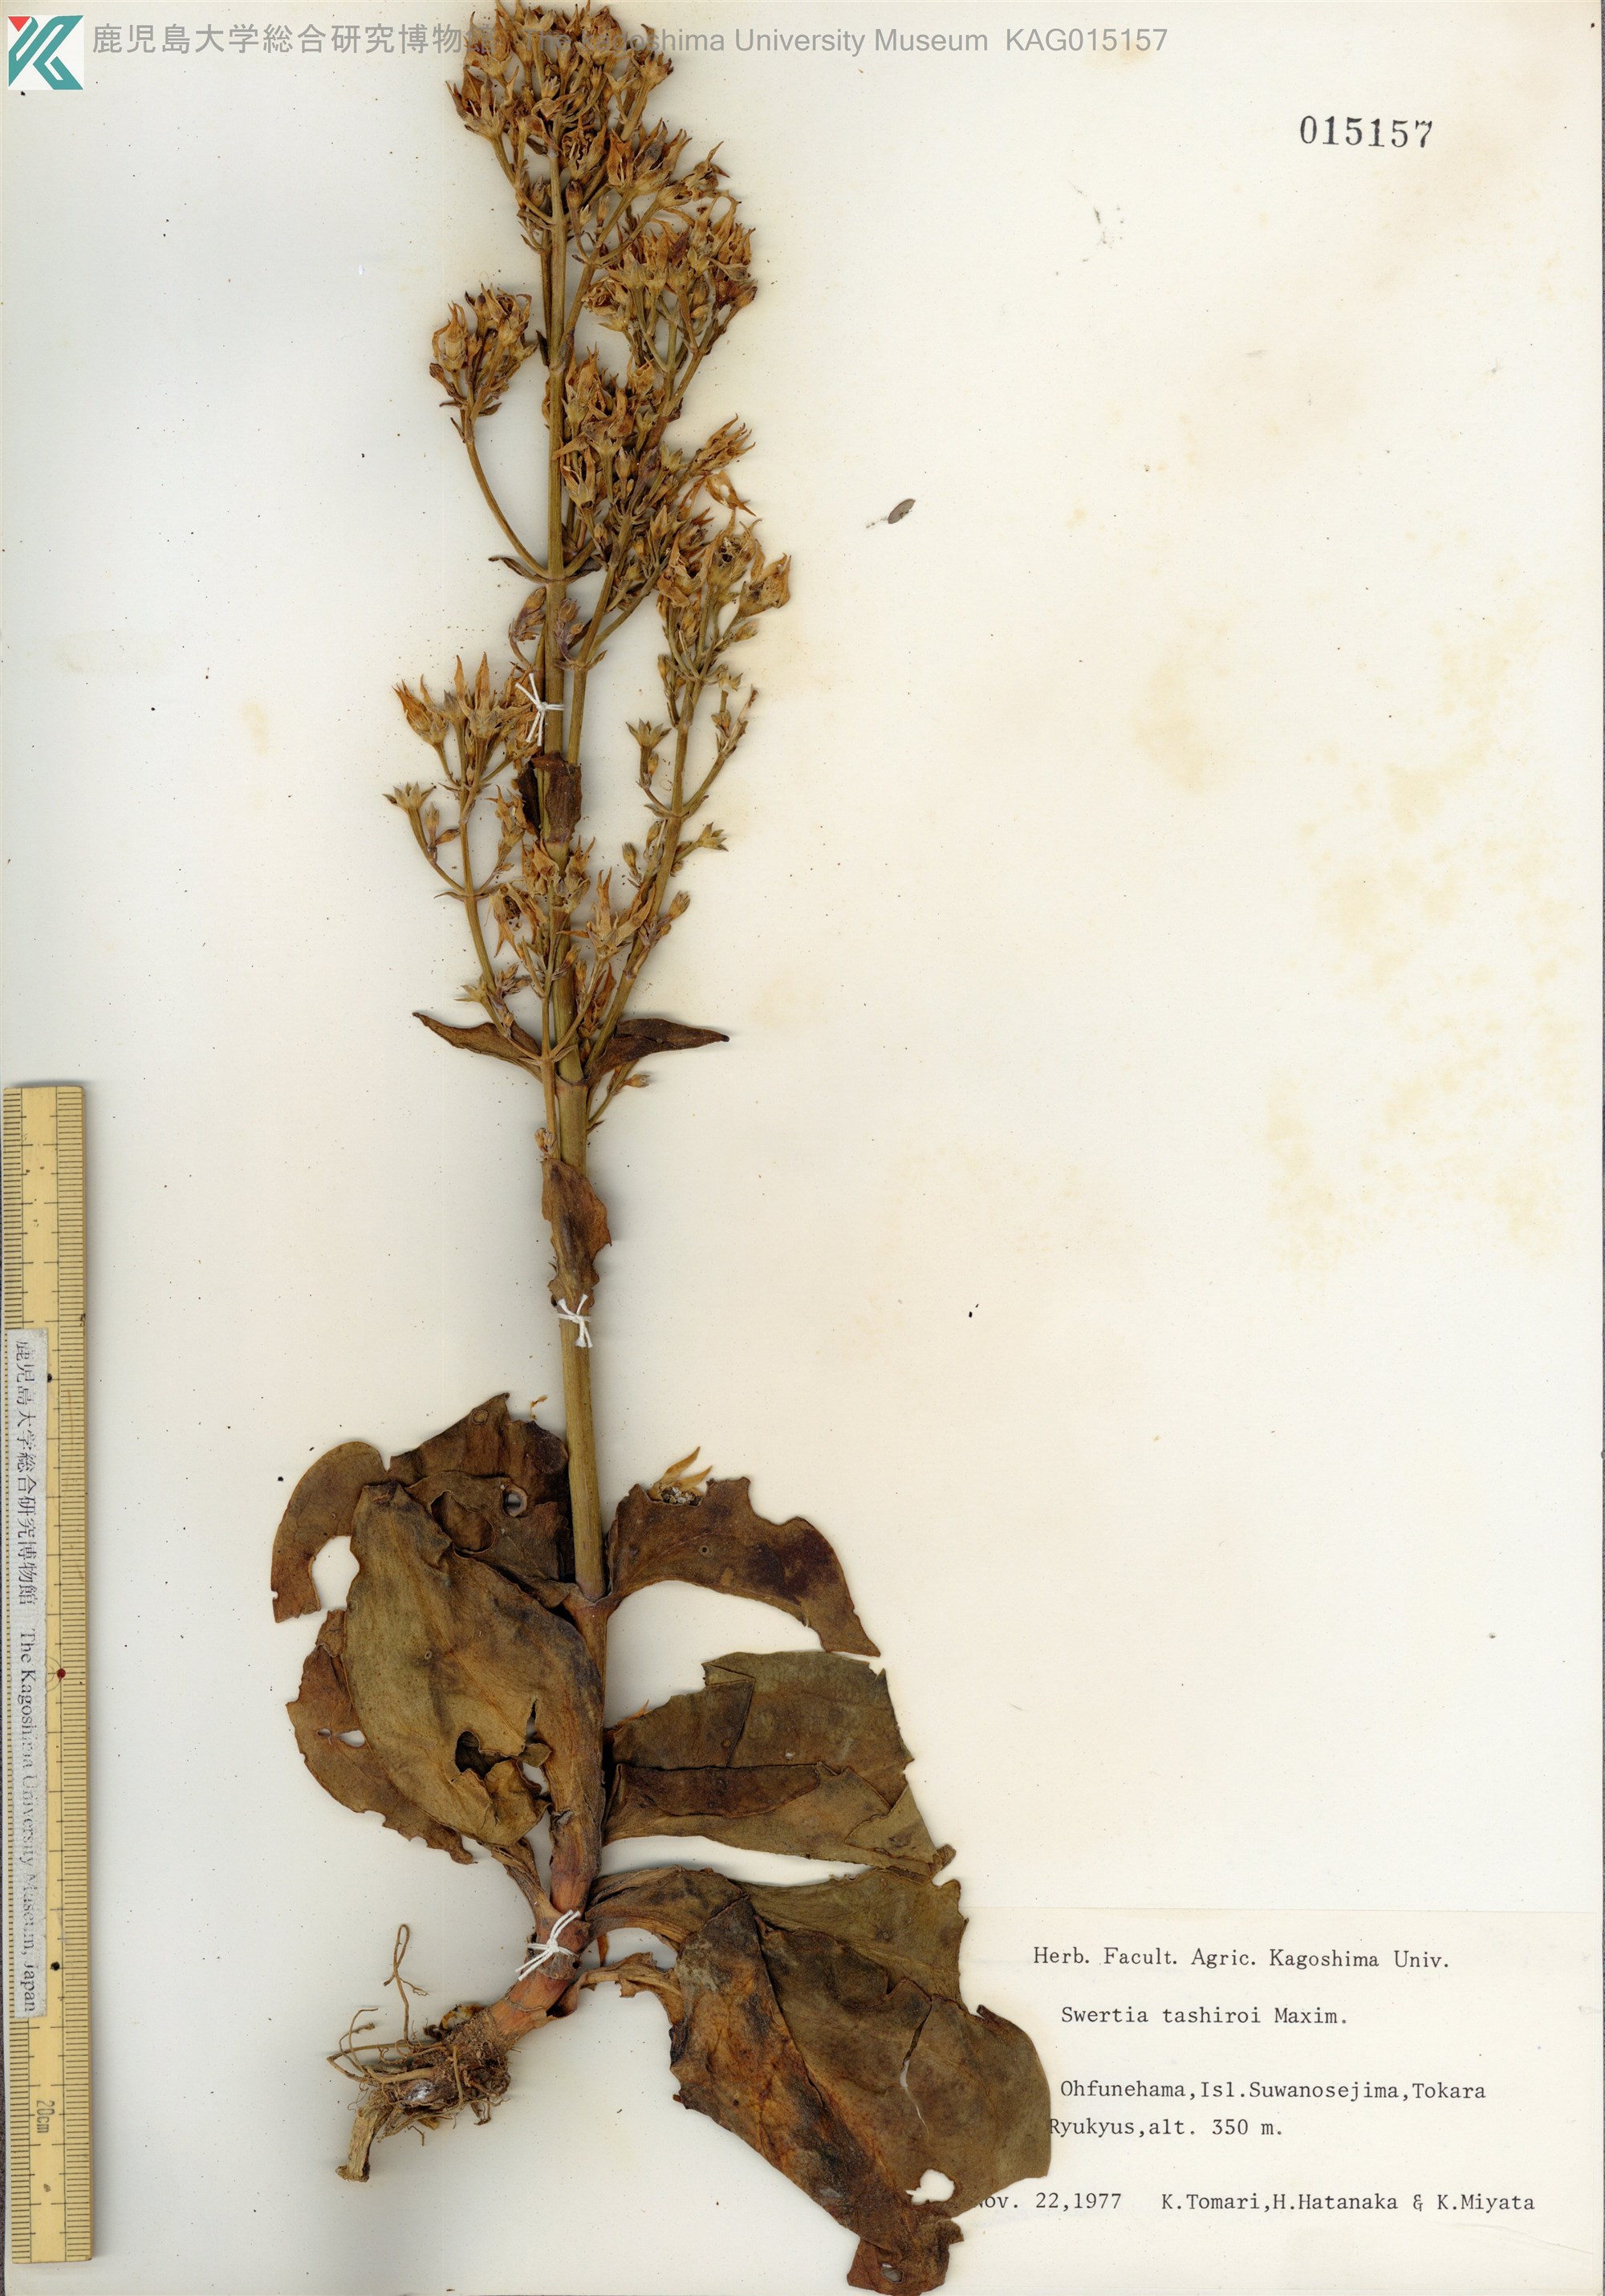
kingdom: Plantae
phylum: Tracheophyta
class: Magnoliopsida
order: Gentianales
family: Gentianaceae
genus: Swertia
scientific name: Swertia tashiroi
